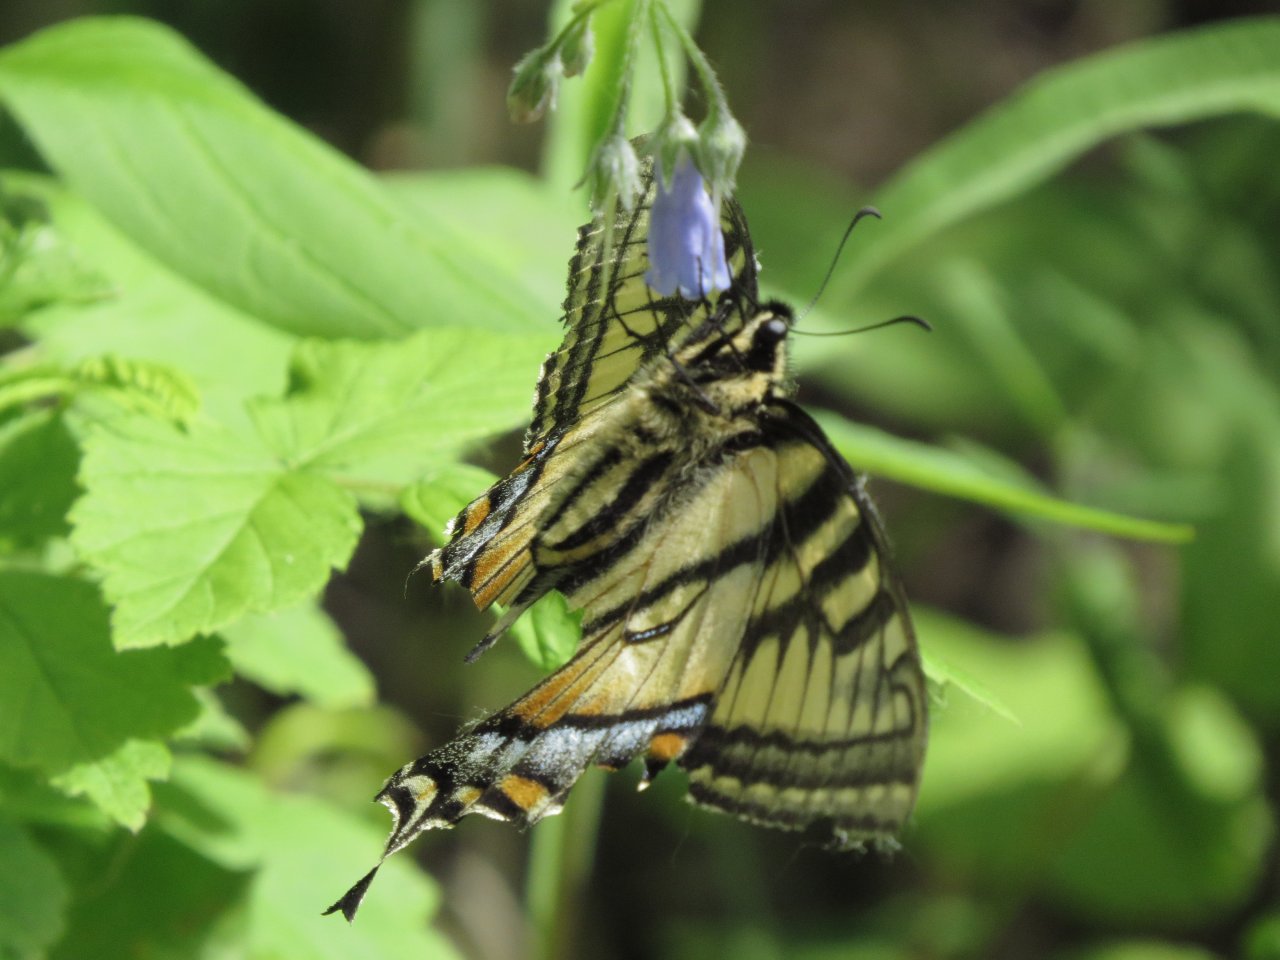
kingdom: Animalia
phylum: Arthropoda
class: Insecta
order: Lepidoptera
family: Papilionidae
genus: Pterourus
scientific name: Pterourus canadensis
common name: Canadian Tiger Swallowtail
